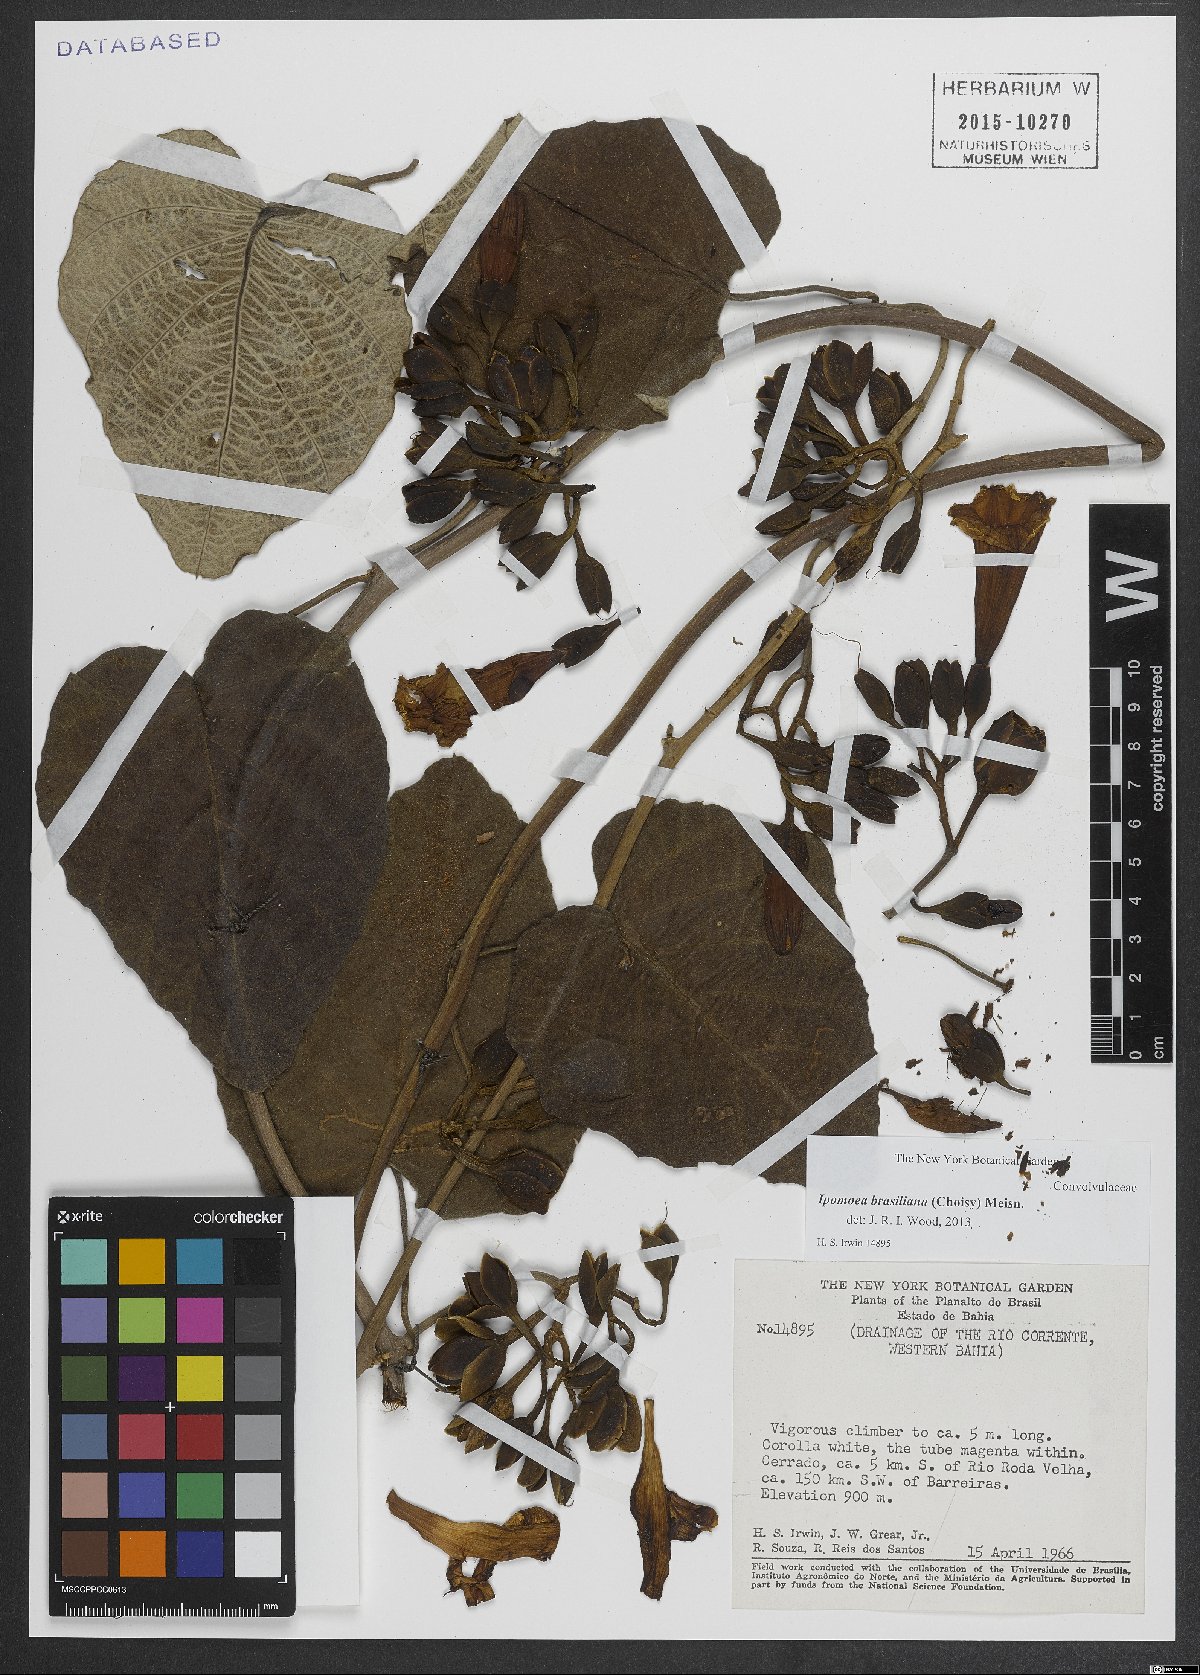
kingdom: Plantae
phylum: Tracheophyta
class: Magnoliopsida
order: Solanales
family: Convolvulaceae
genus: Ipomoea
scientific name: Ipomoea brasiliana
